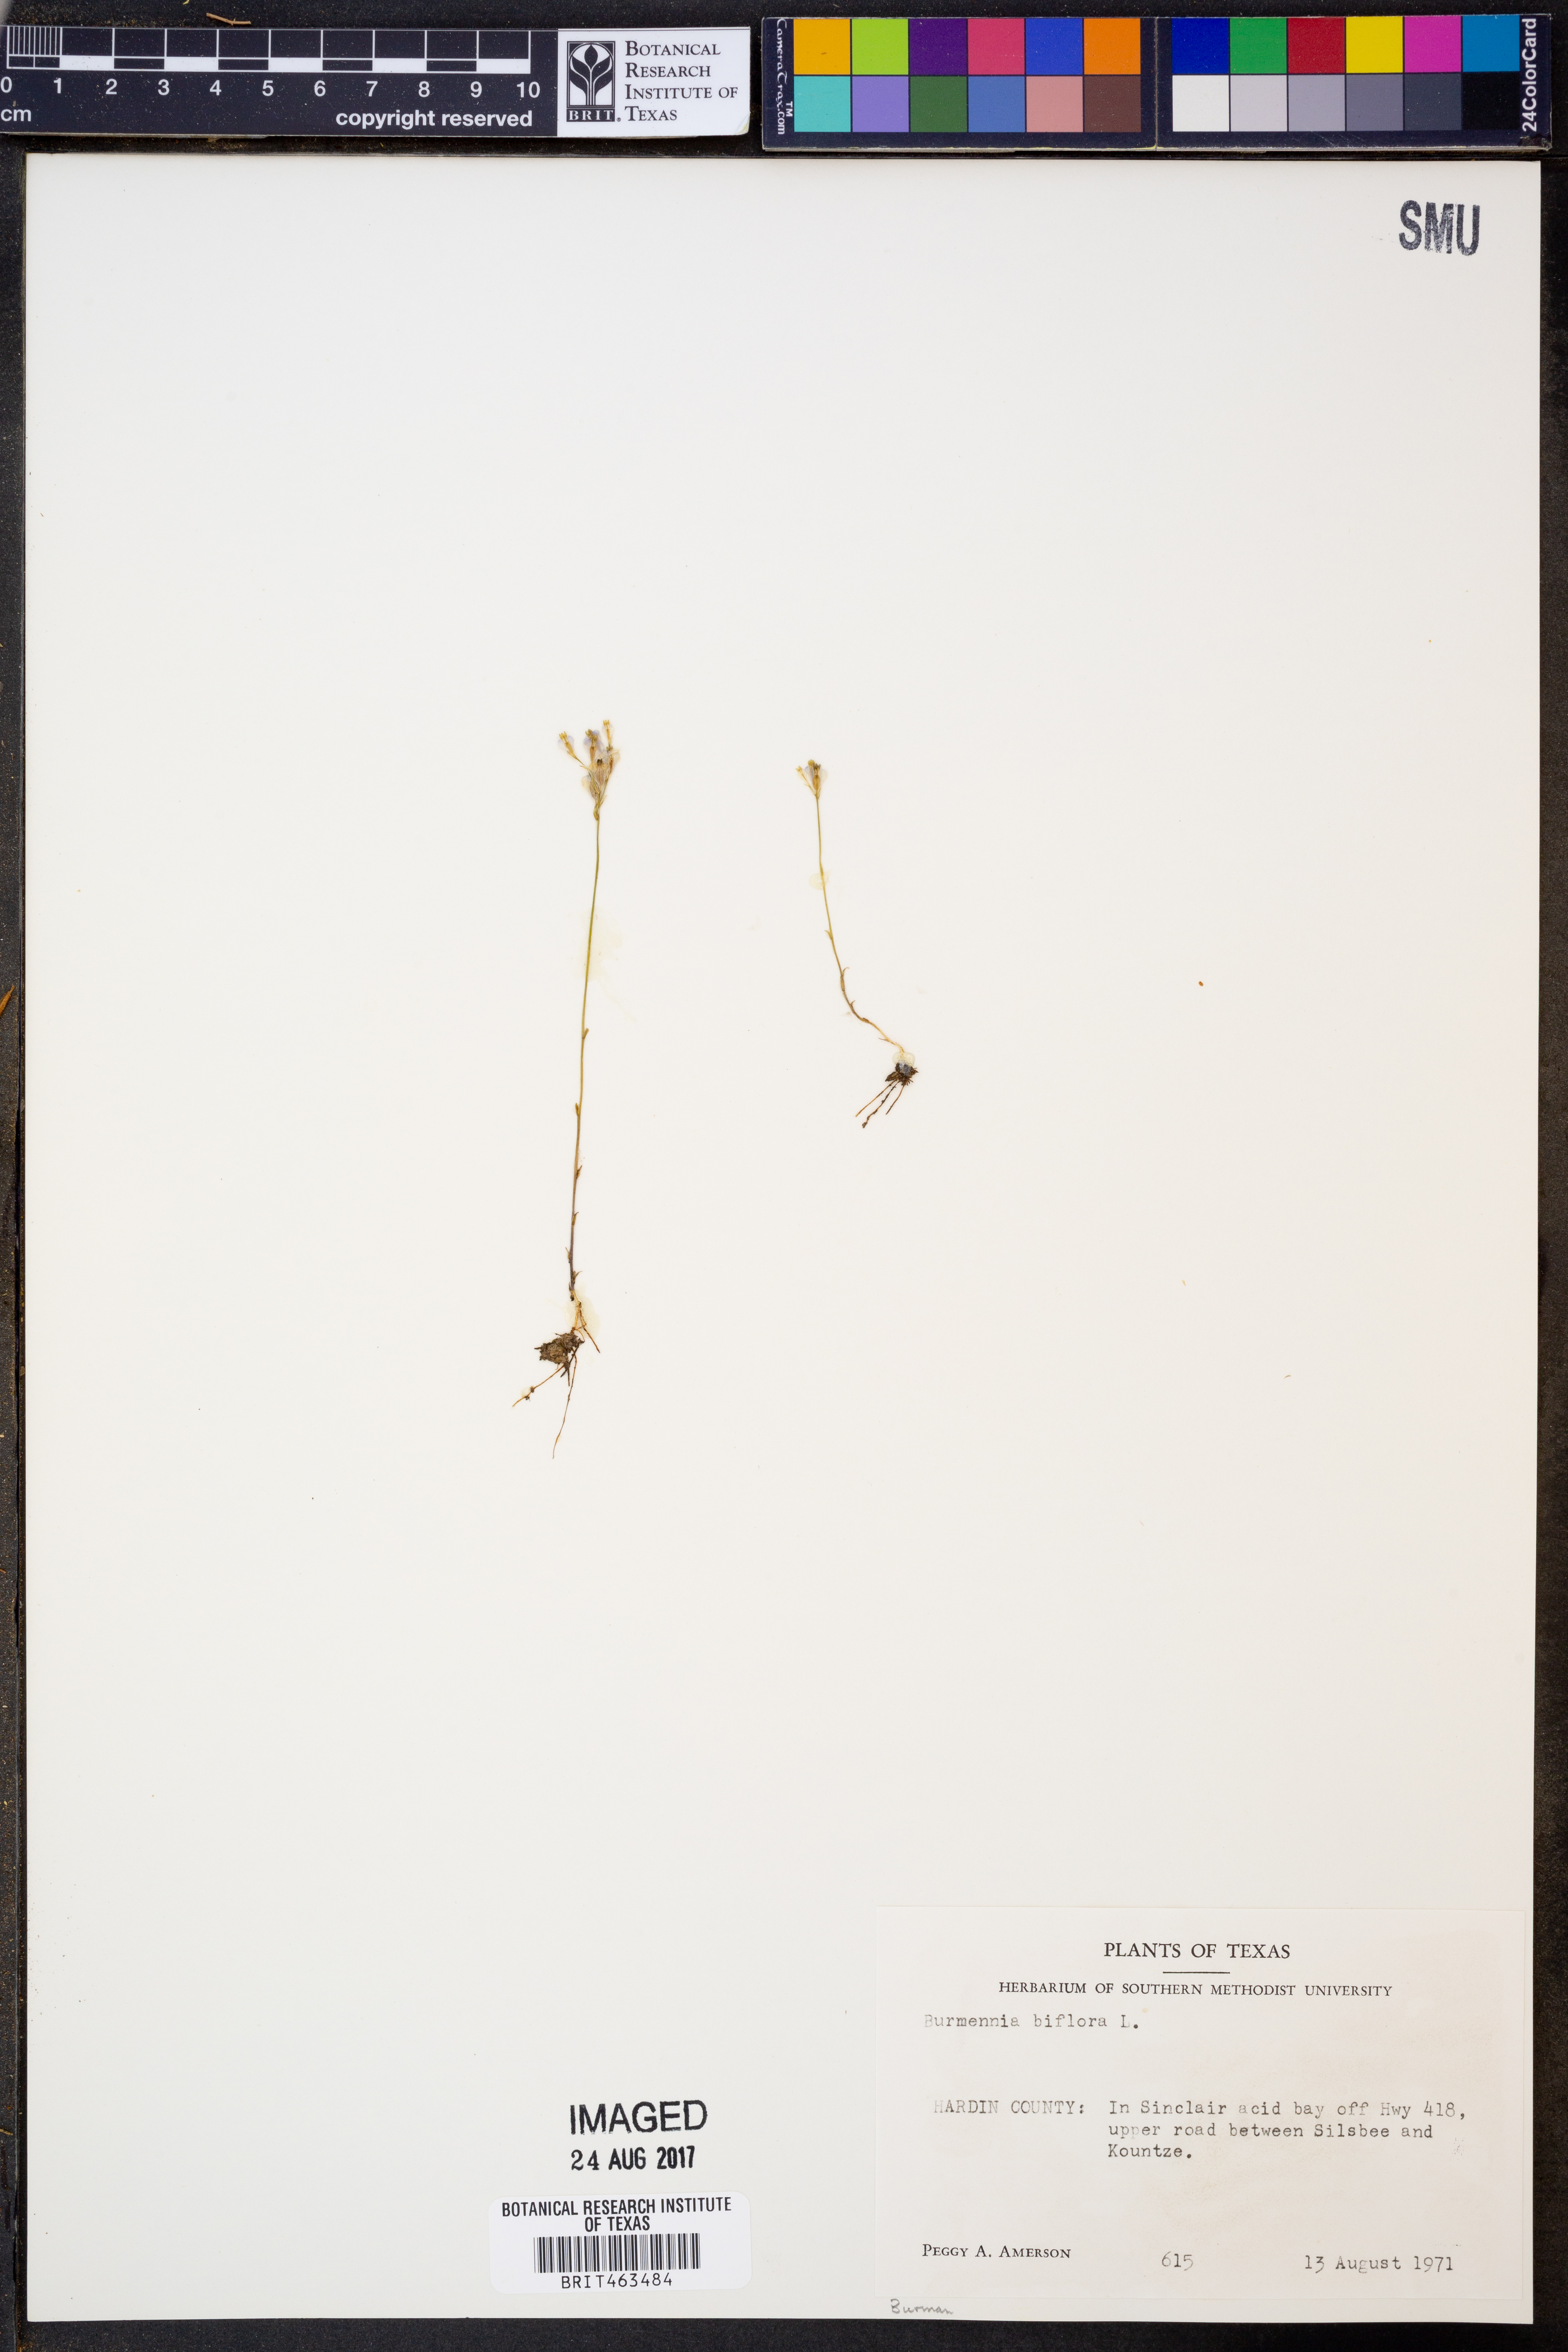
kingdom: Plantae
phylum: Tracheophyta
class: Liliopsida
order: Dioscoreales
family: Burmanniaceae
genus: Burmannia
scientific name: Burmannia biflora
